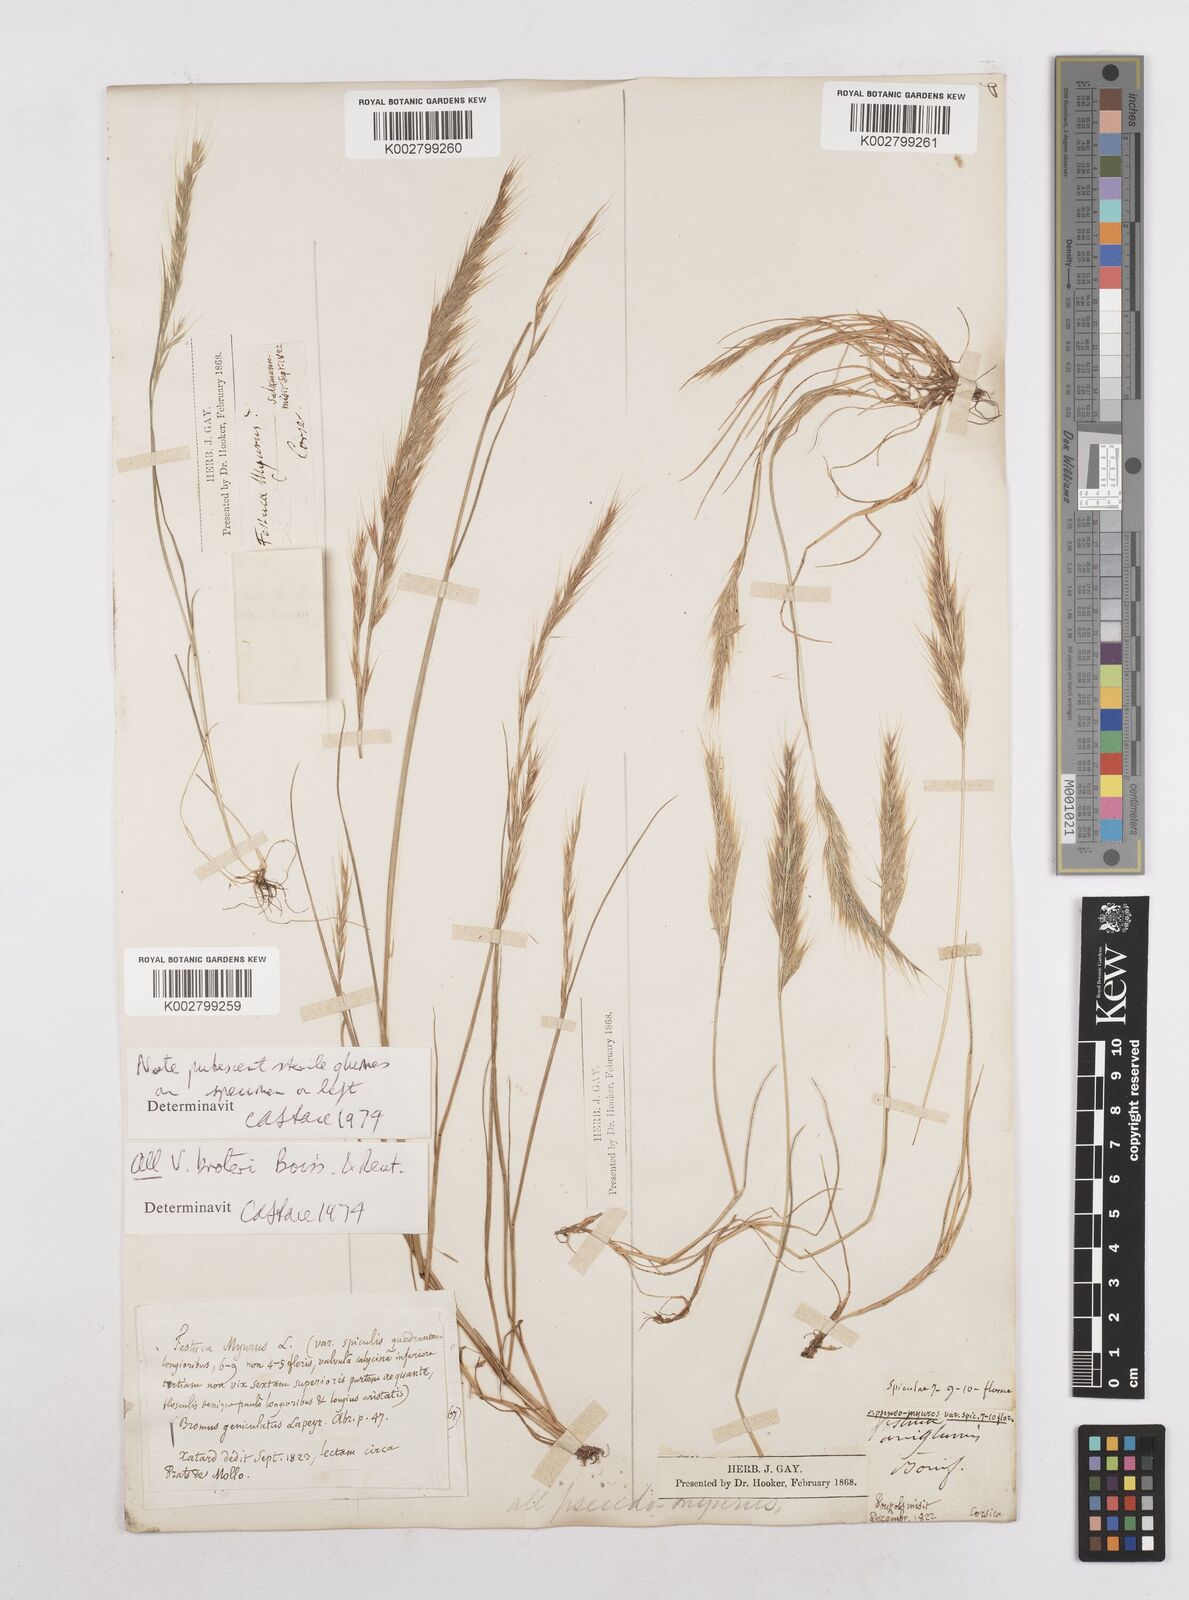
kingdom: Plantae
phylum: Tracheophyta
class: Liliopsida
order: Poales
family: Poaceae
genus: Festuca
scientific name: Festuca muralis
